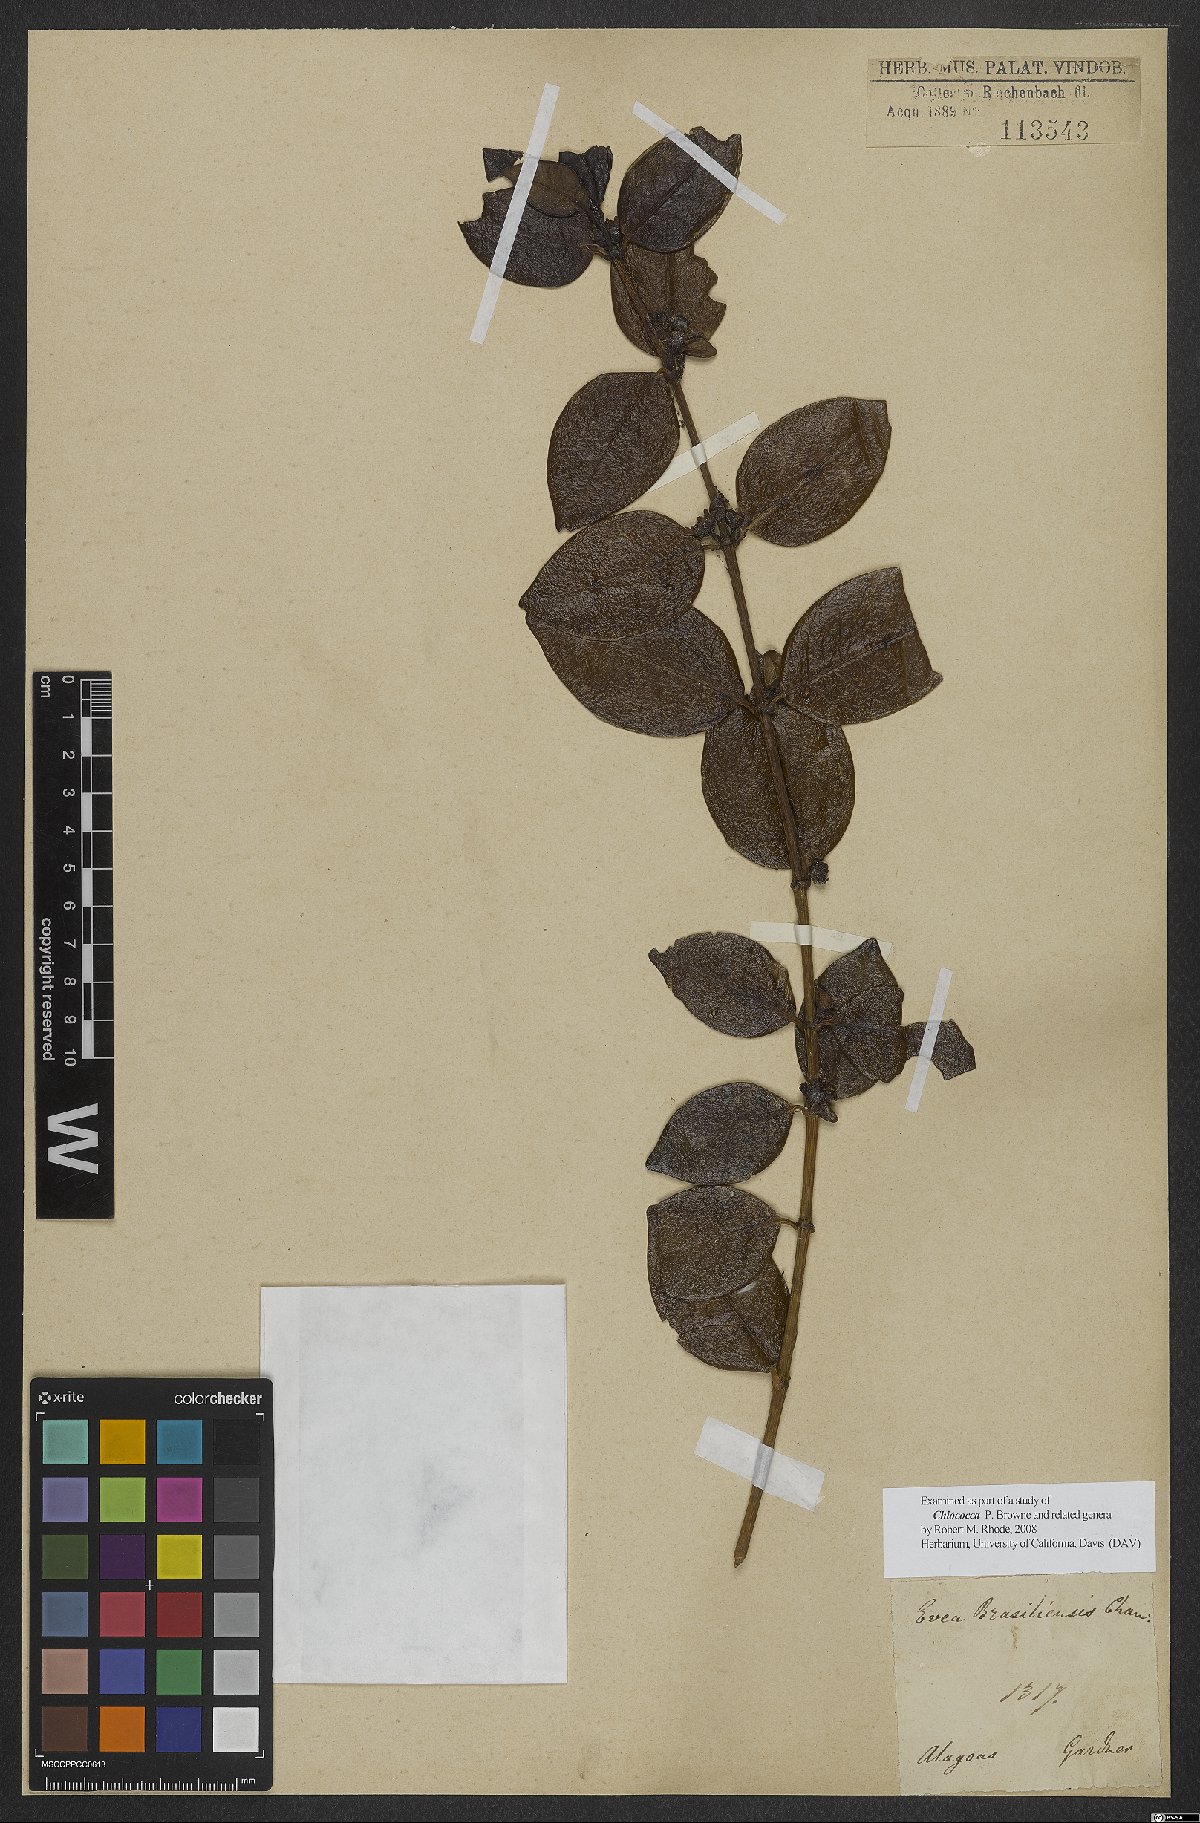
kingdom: Plantae
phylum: Tracheophyta
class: Magnoliopsida
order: Gentianales
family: Rubiaceae
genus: Chiococca
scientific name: Chiococca
